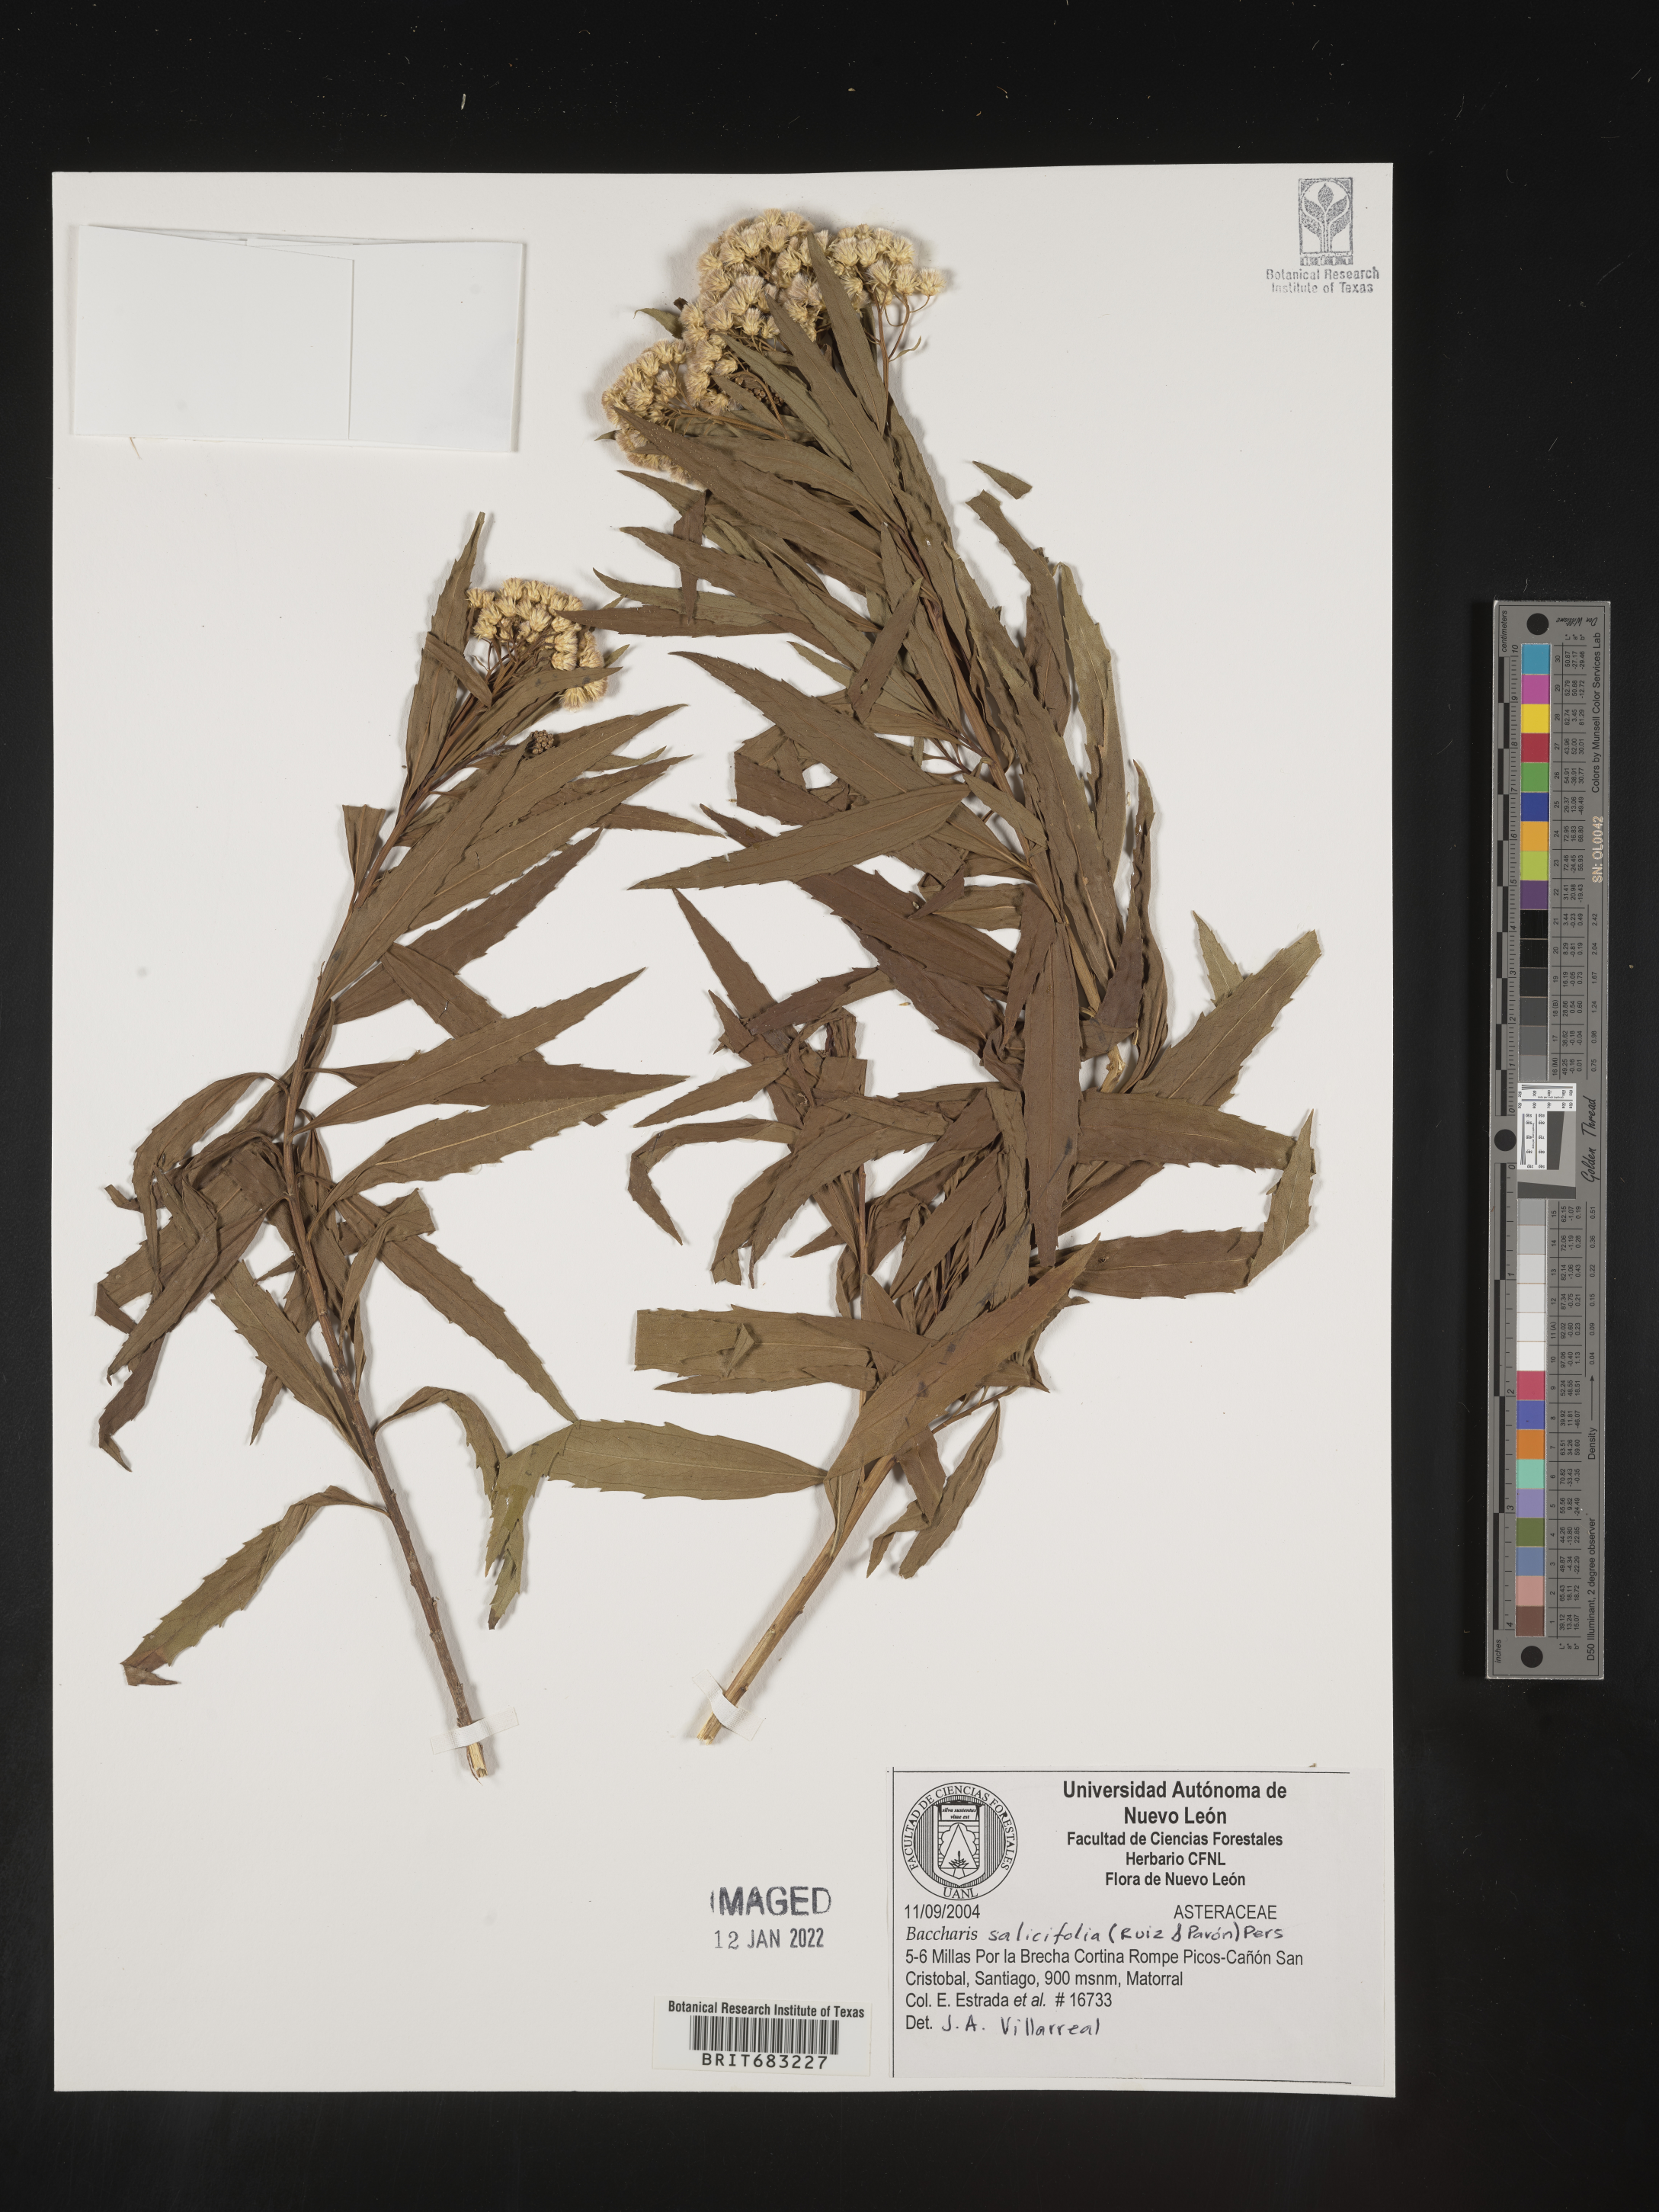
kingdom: Plantae
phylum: Tracheophyta
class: Magnoliopsida
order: Asterales
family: Asteraceae
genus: Baccharis
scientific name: Baccharis salicifolia
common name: Sticky baccharis
